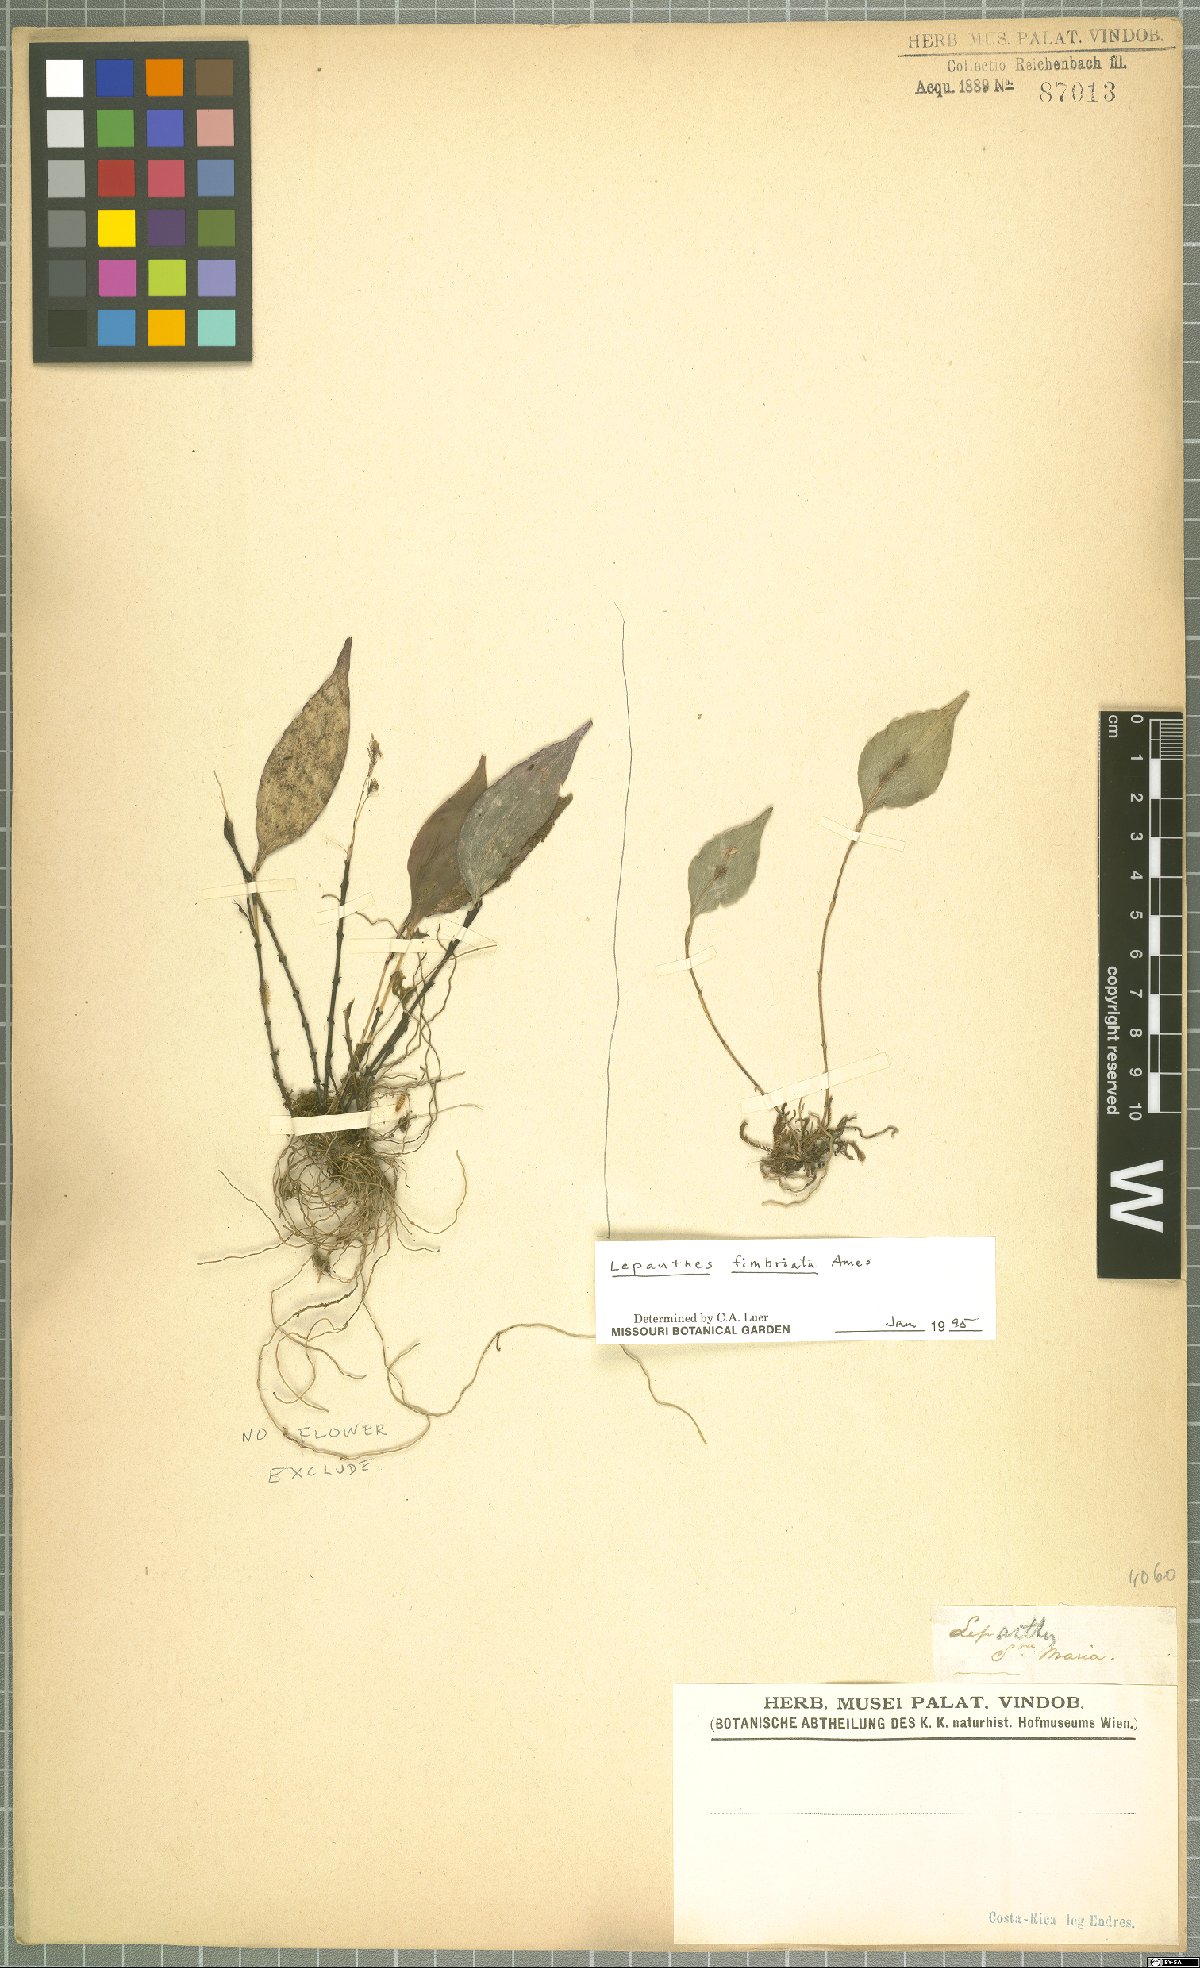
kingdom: Plantae
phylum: Tracheophyta
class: Liliopsida
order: Asparagales
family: Orchidaceae
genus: Lepanthes
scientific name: Lepanthes fimbriata
